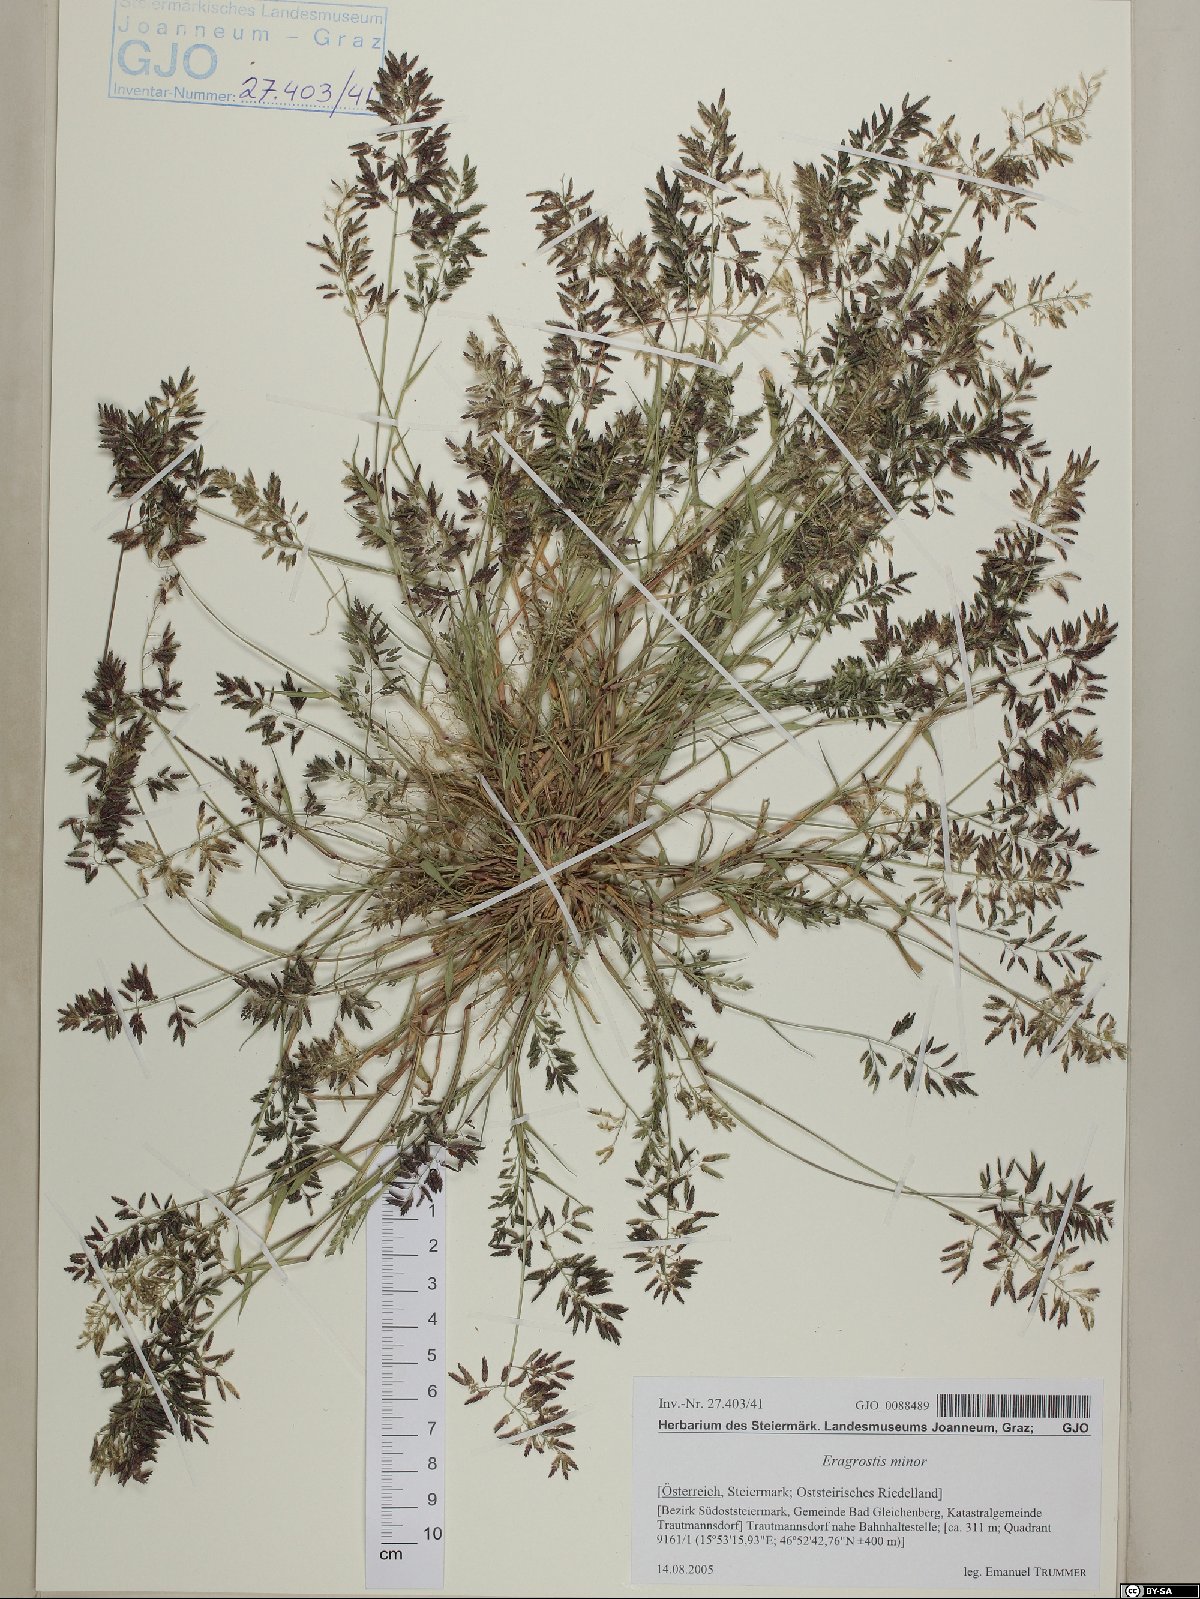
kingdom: Plantae
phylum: Tracheophyta
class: Liliopsida
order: Poales
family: Poaceae
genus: Eragrostis
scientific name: Eragrostis minor
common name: Small love-grass
